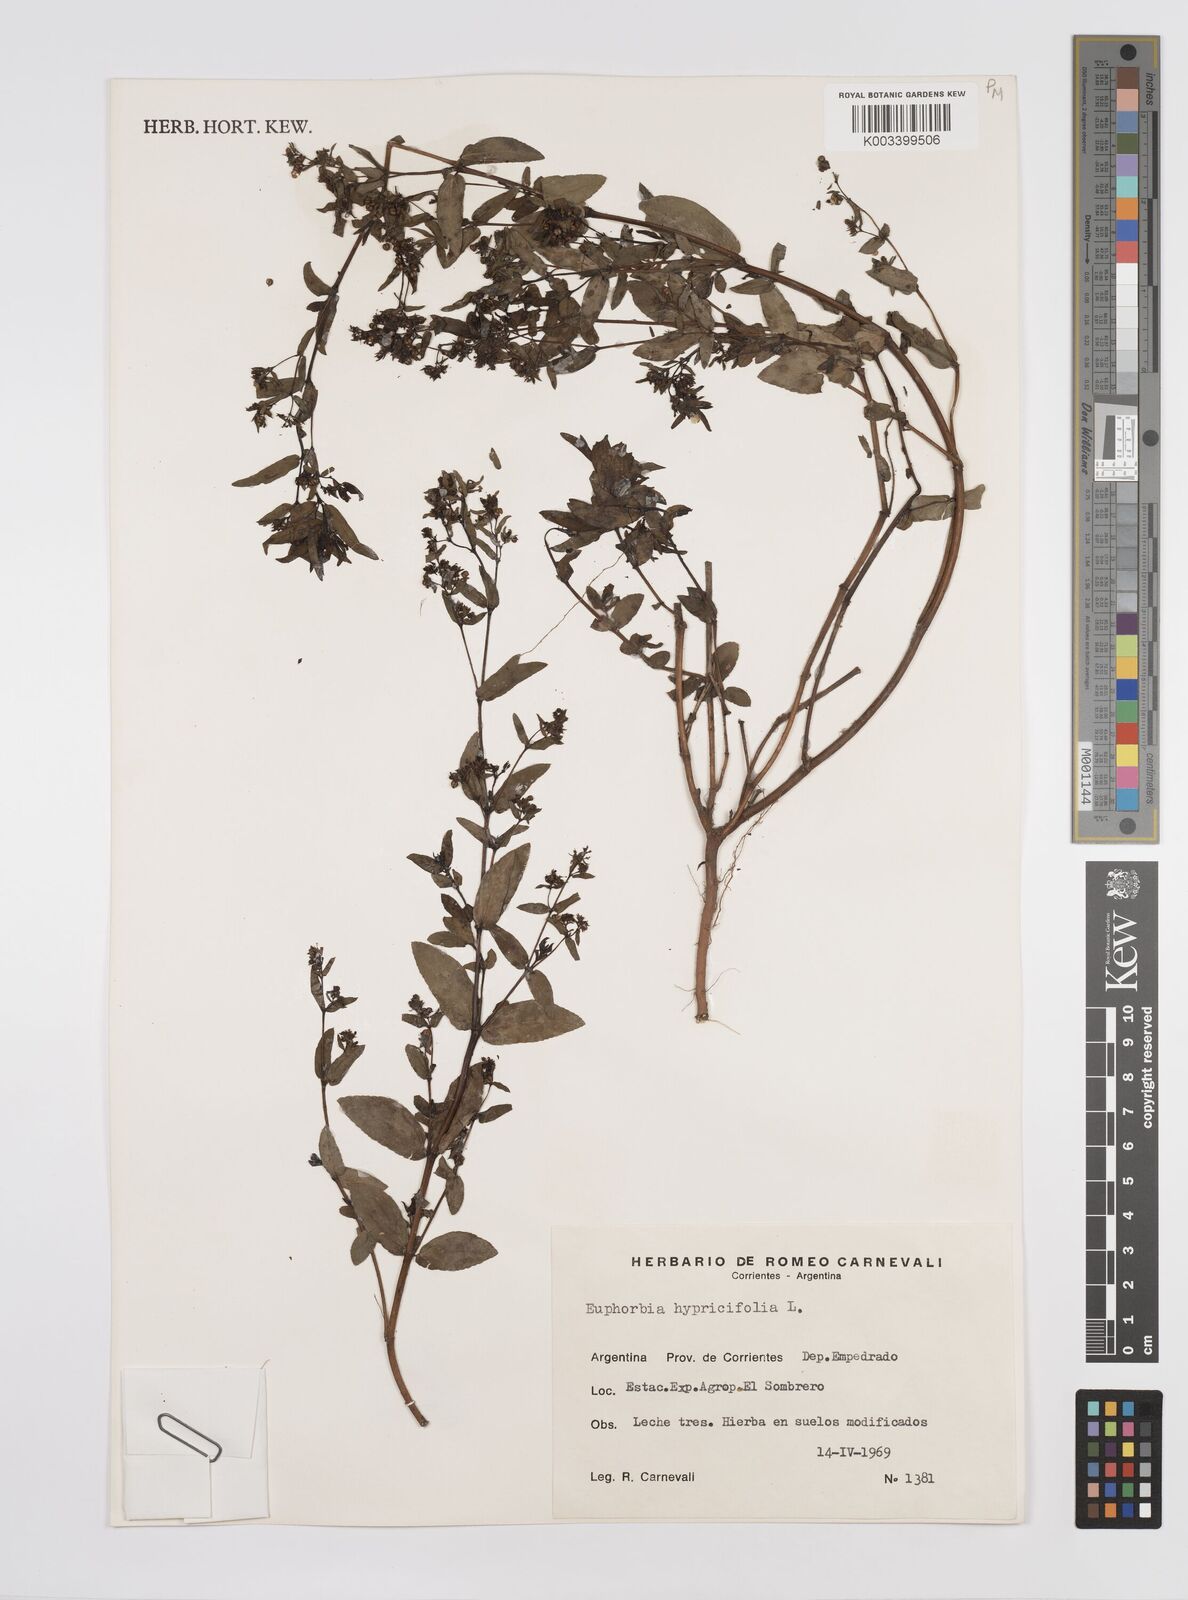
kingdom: Plantae
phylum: Tracheophyta
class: Magnoliopsida
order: Malpighiales
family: Euphorbiaceae
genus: Euphorbia
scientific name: Euphorbia hypericifolia
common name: Graceful sandmat
